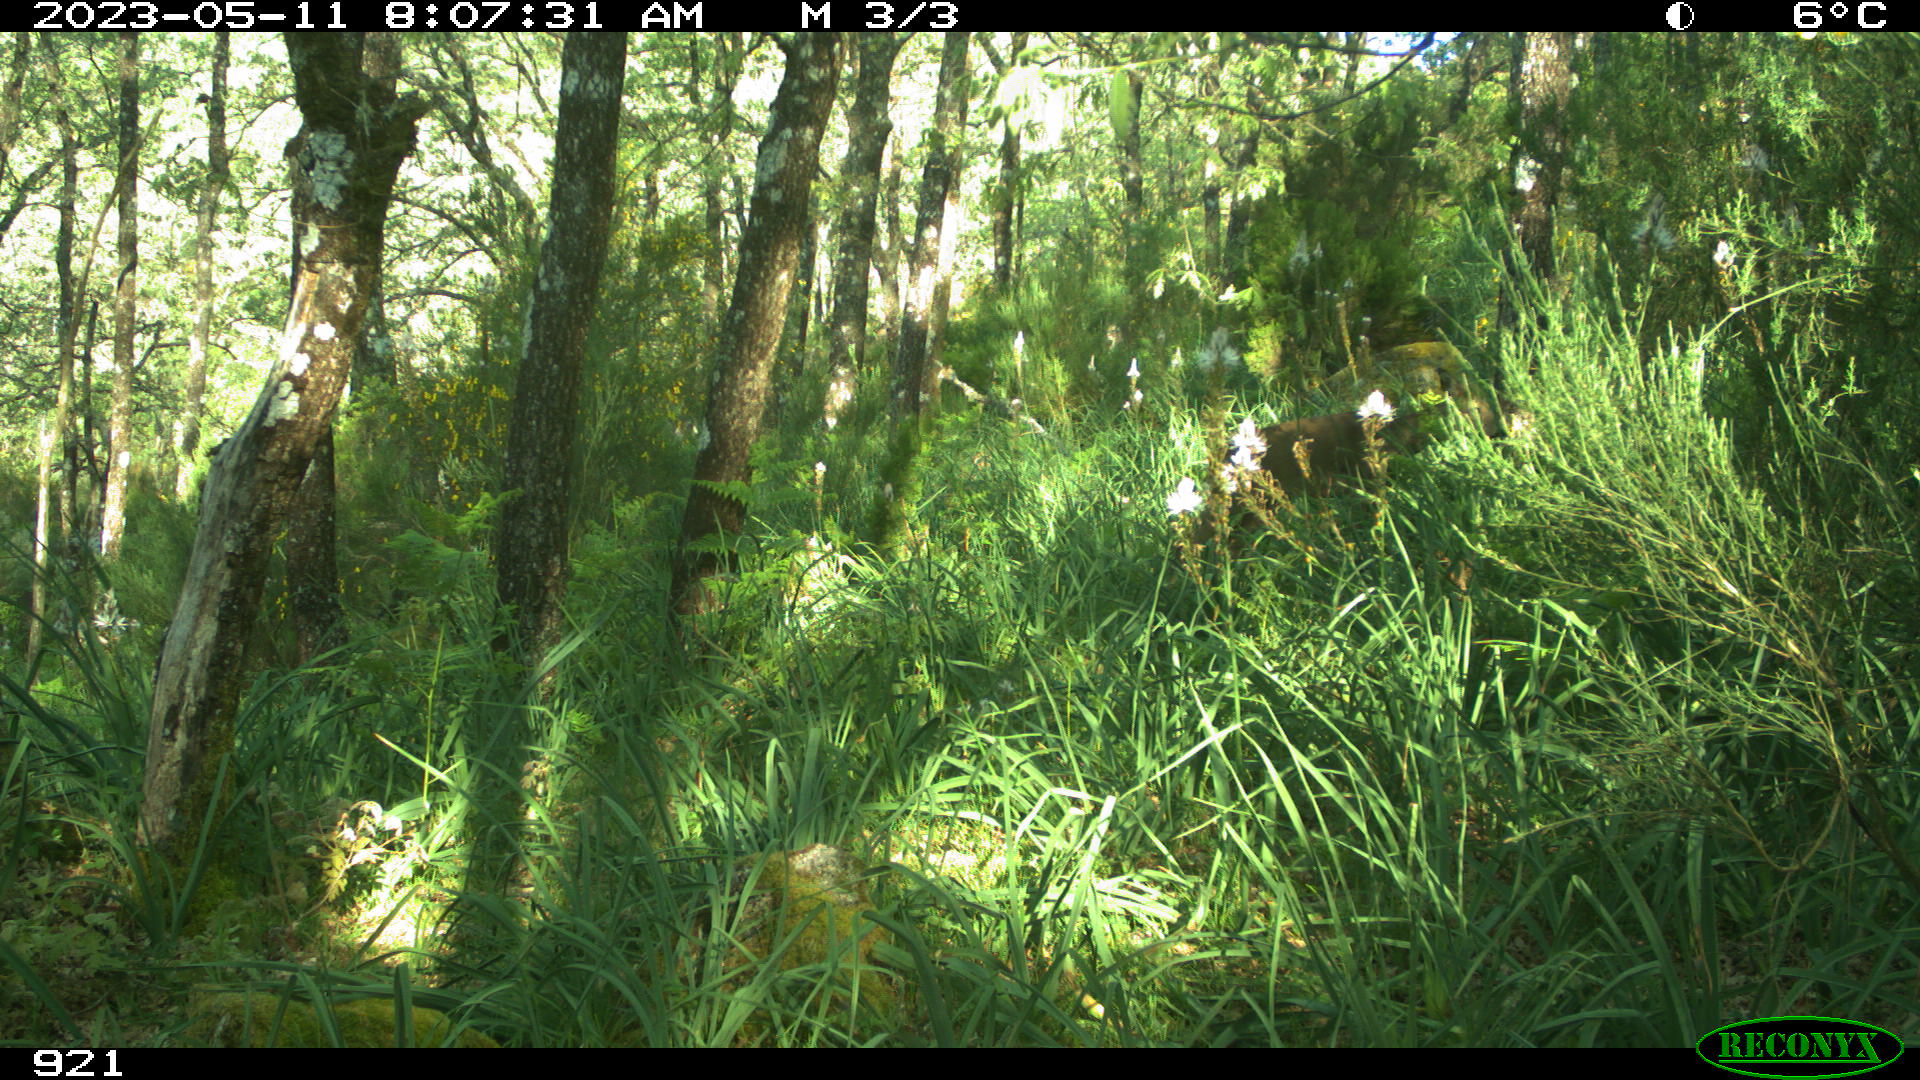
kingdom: Animalia
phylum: Chordata
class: Mammalia
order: Artiodactyla
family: Cervidae
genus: Capreolus
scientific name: Capreolus capreolus
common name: Western roe deer
